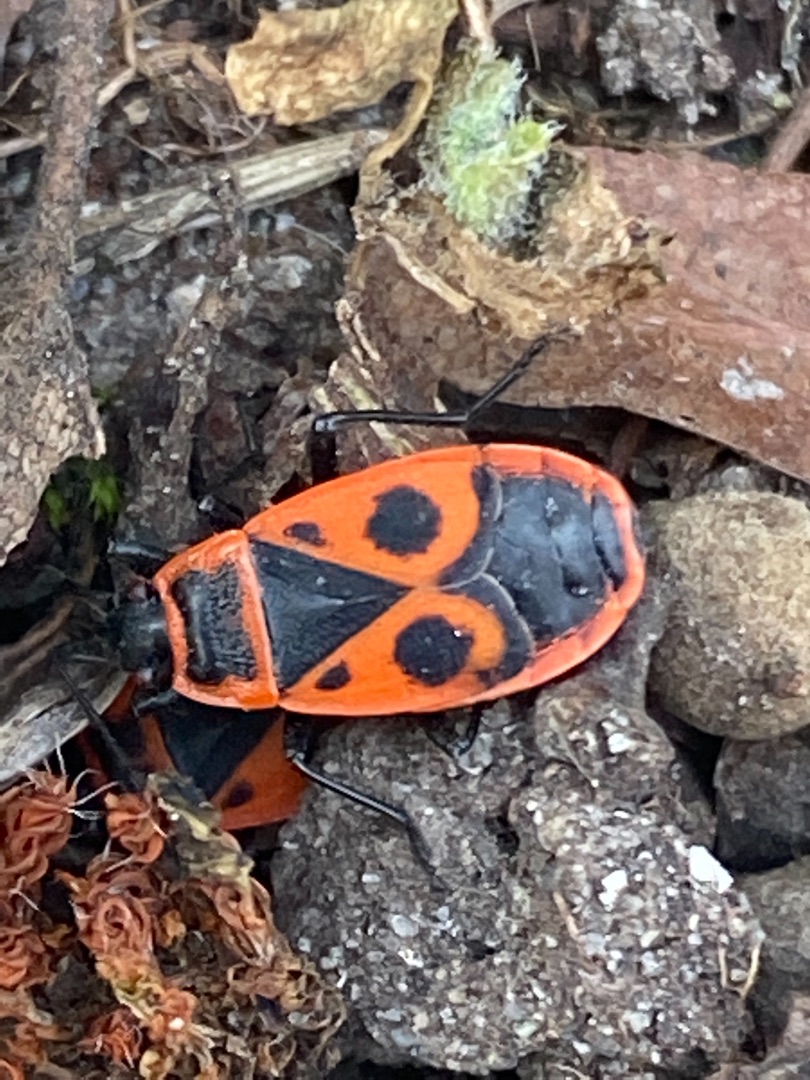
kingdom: Animalia
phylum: Arthropoda
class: Insecta
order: Hemiptera
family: Pyrrhocoridae
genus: Pyrrhocoris
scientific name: Pyrrhocoris apterus
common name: Ildtæge
